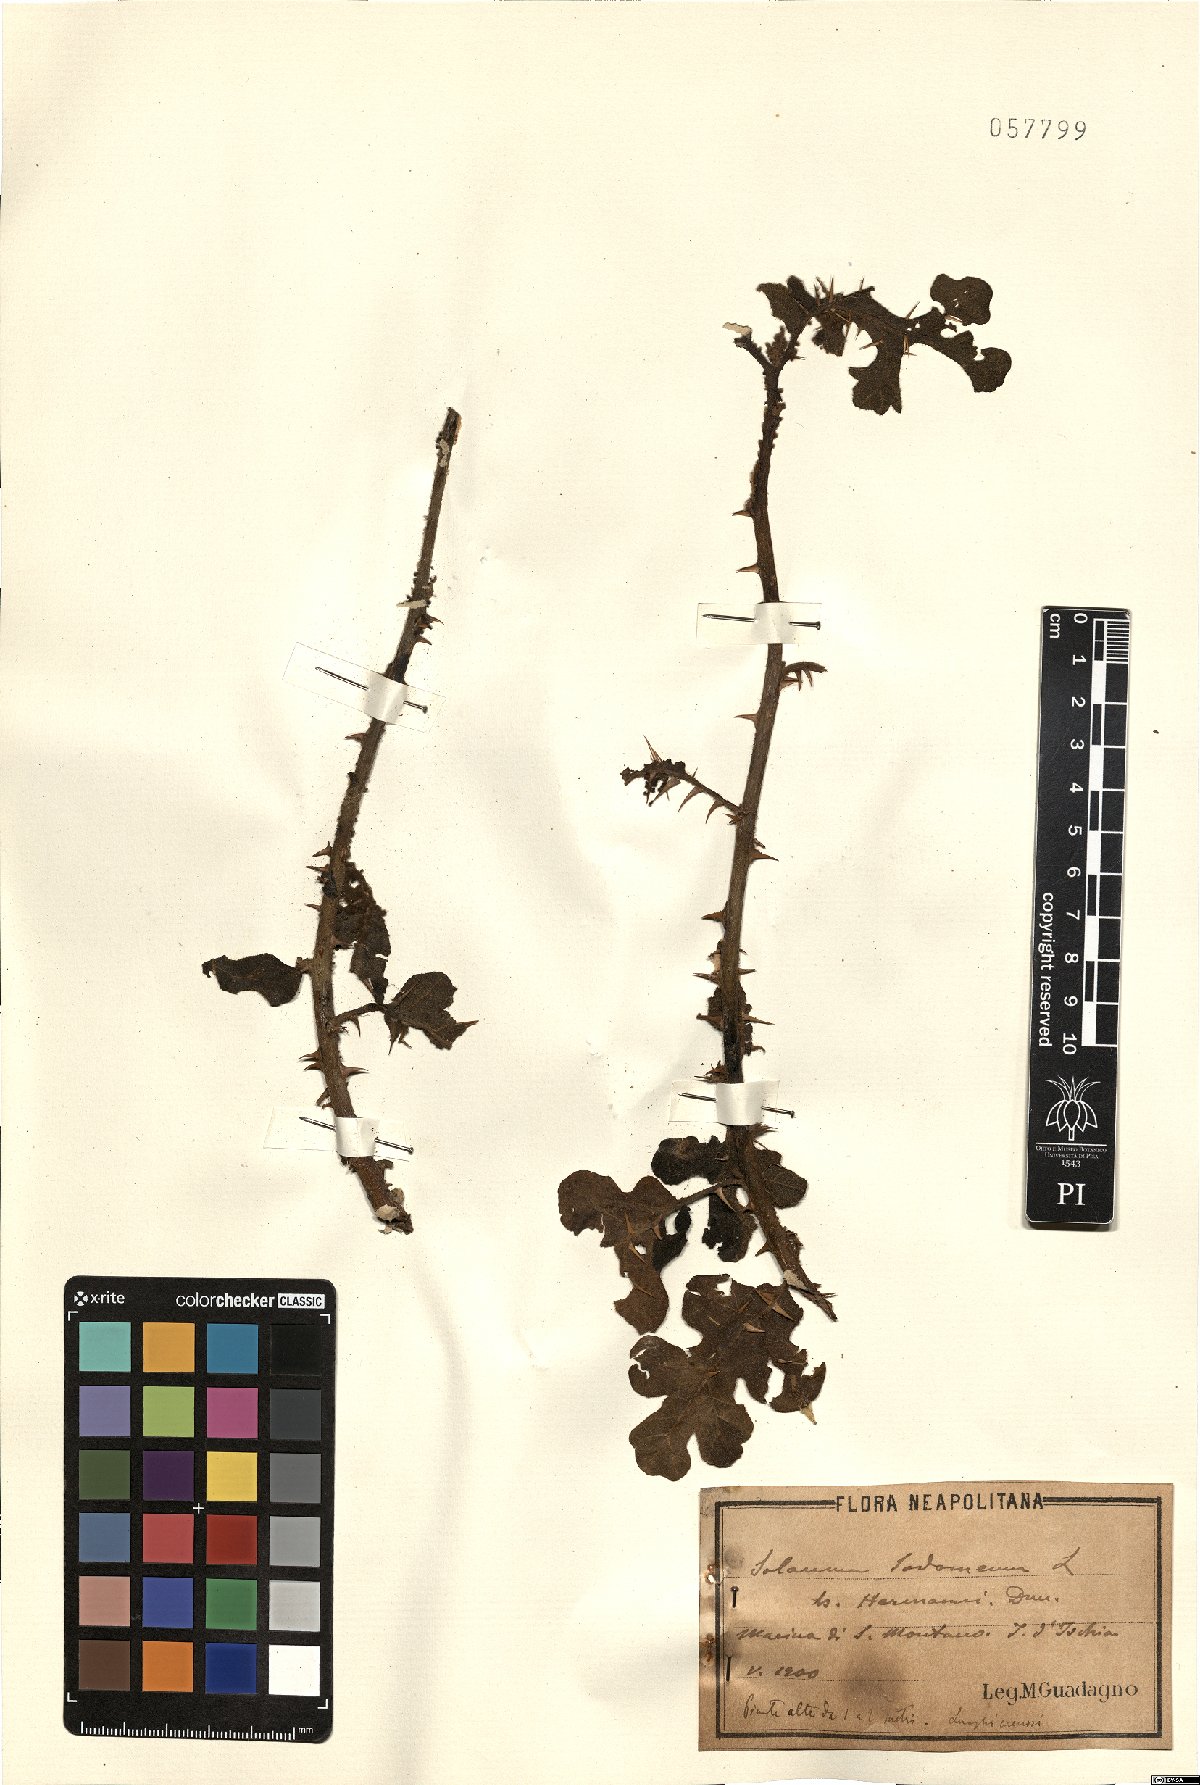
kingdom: Plantae
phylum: Tracheophyta
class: Magnoliopsida
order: Solanales
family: Solanaceae
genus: Solanum
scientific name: Solanum linnaeanum
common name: Nightshade
